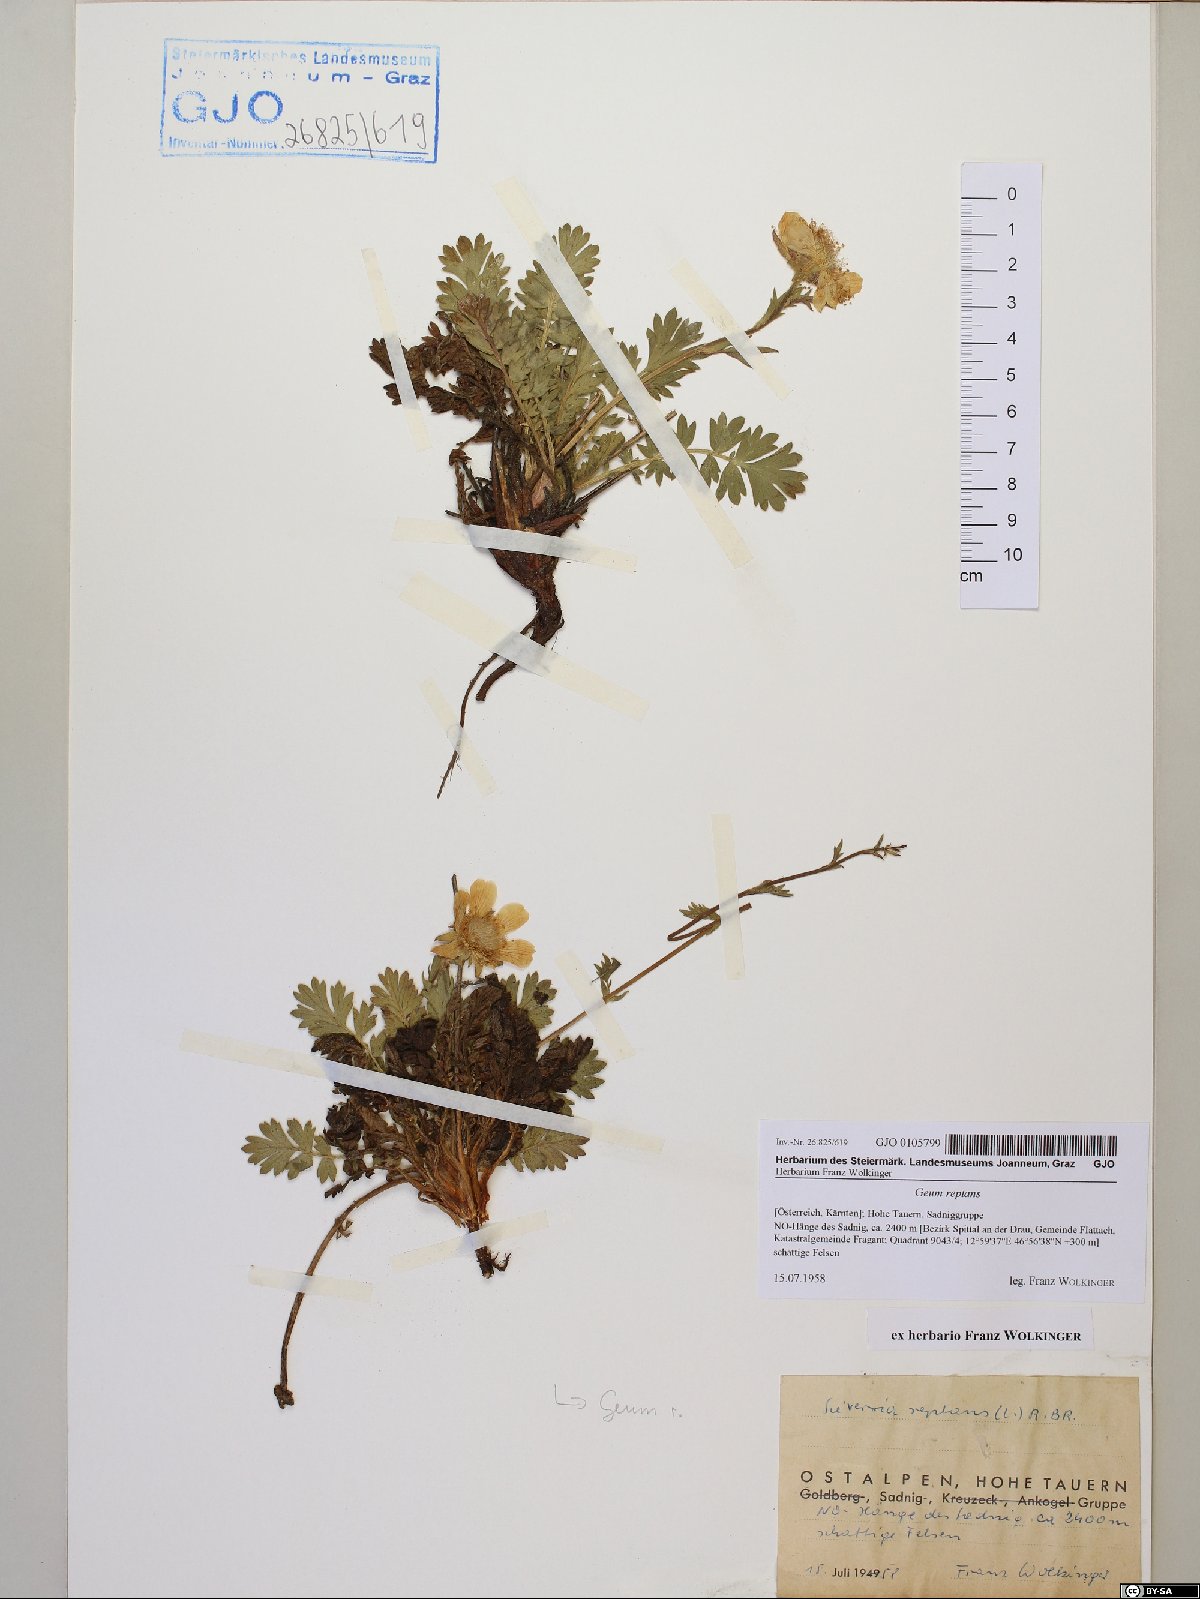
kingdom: Plantae
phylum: Tracheophyta
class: Magnoliopsida
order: Rosales
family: Rosaceae
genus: Geum
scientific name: Geum reptans
